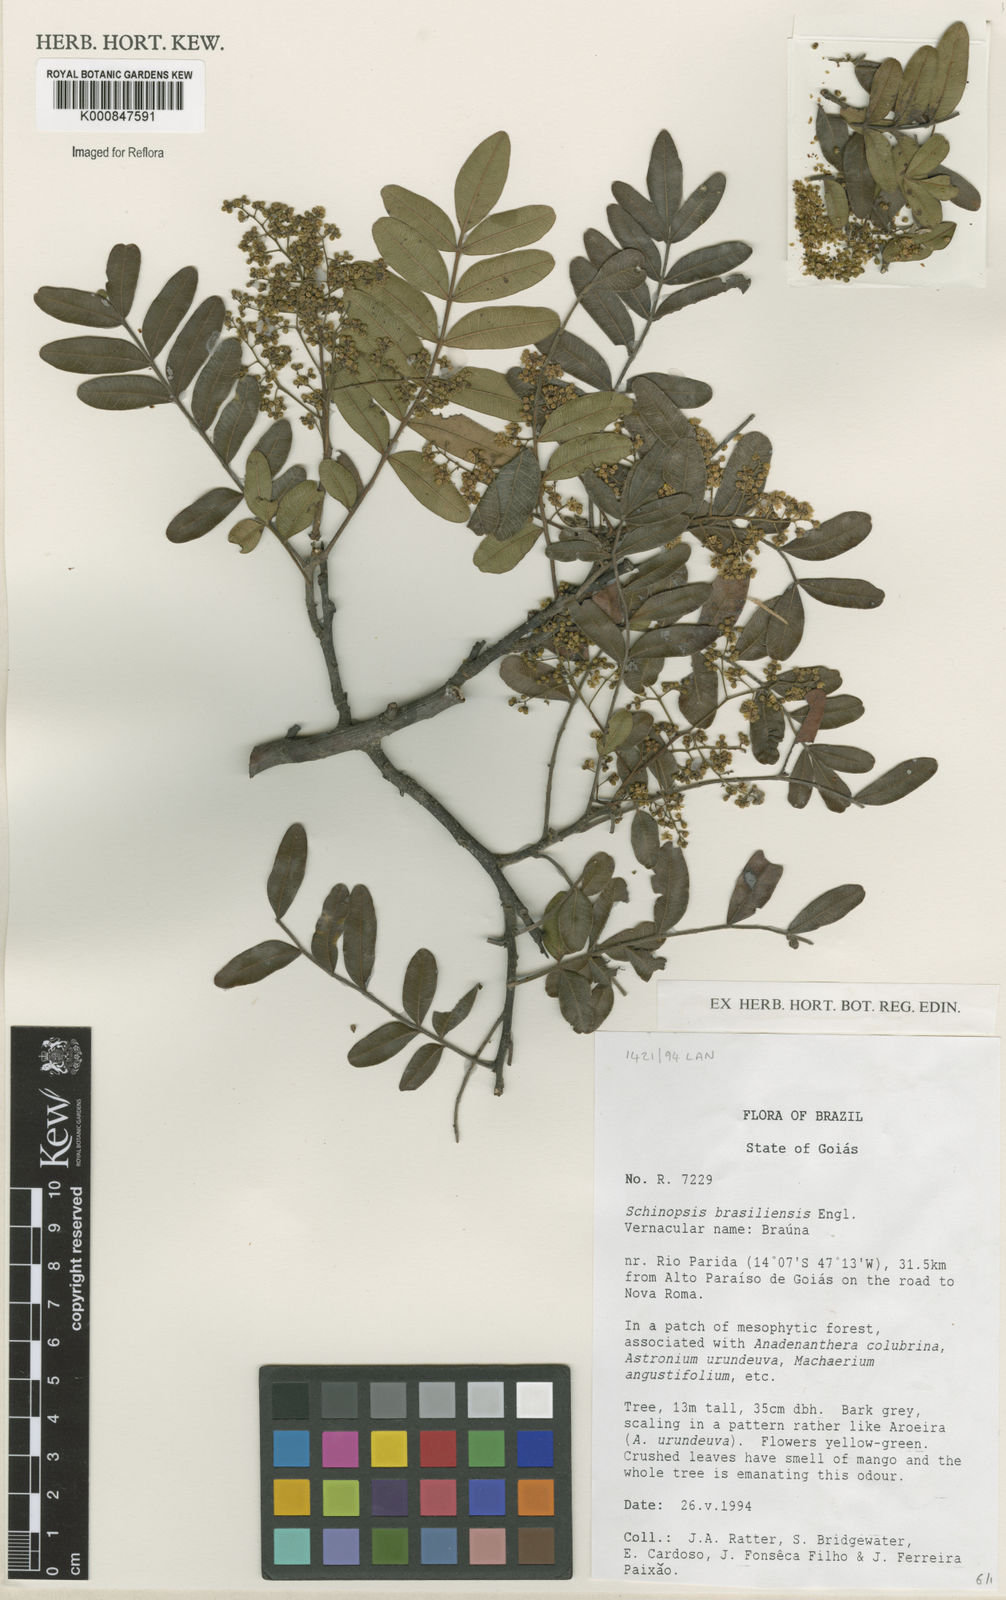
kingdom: Plantae
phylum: Tracheophyta
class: Magnoliopsida
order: Sapindales
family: Anacardiaceae
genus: Schinopsis
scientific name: Schinopsis brasiliensis
